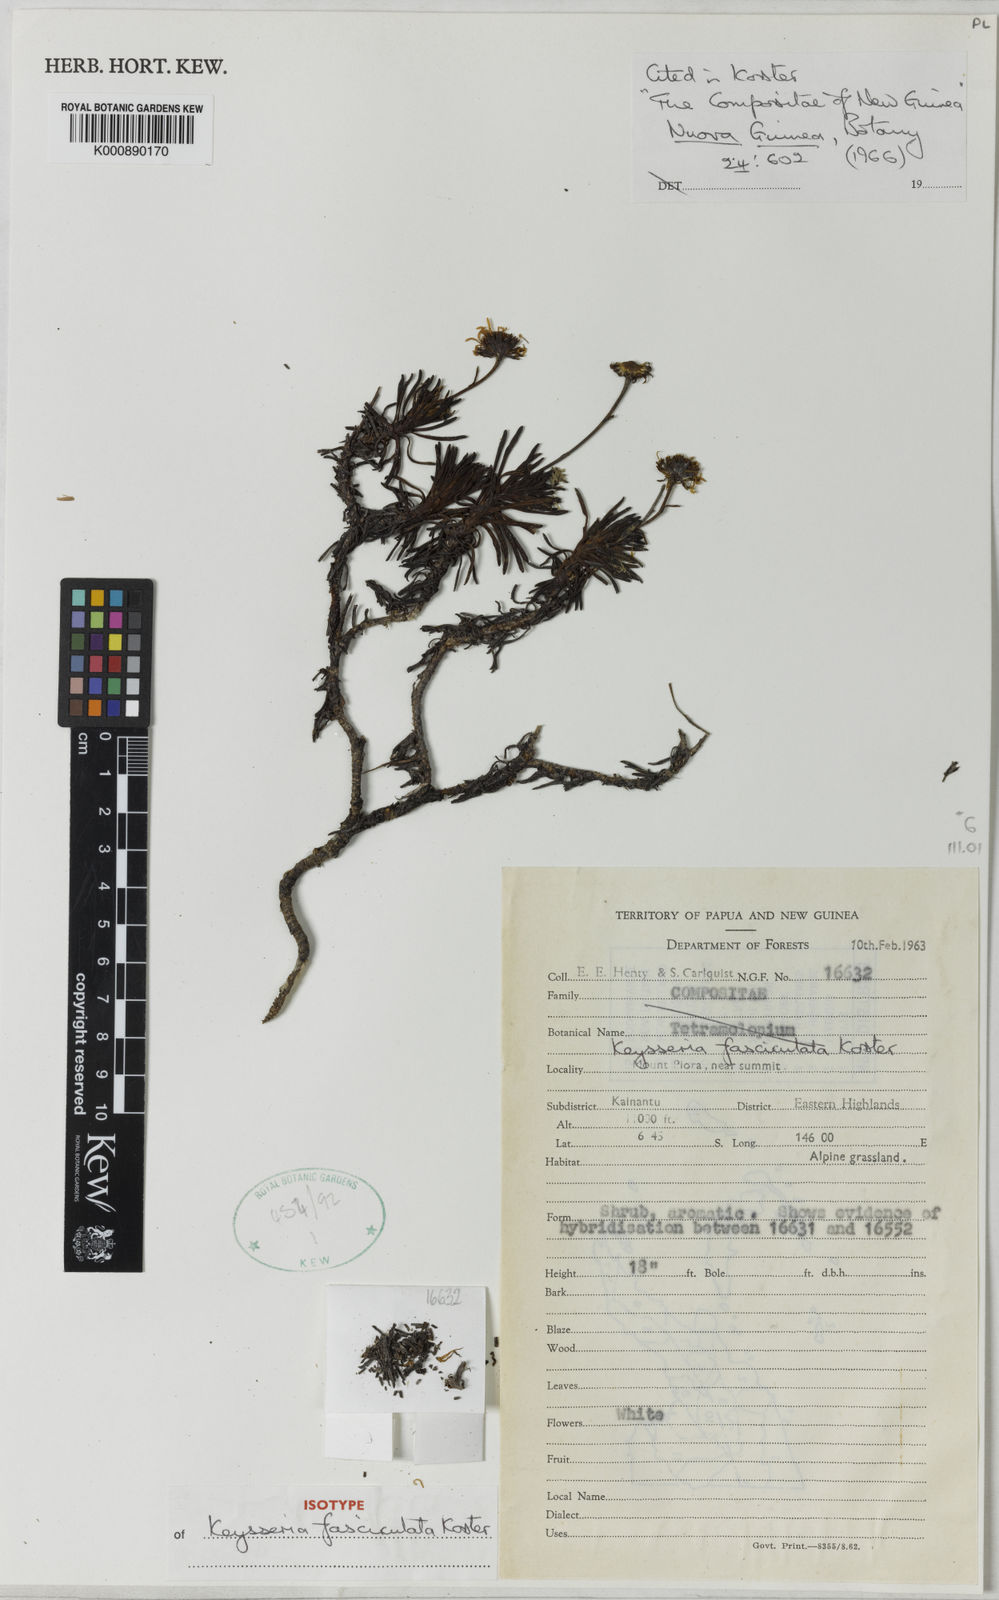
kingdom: Plantae
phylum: Tracheophyta
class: Magnoliopsida
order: Asterales
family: Asteraceae
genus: Keysseria
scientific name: Keysseria fasciculata
